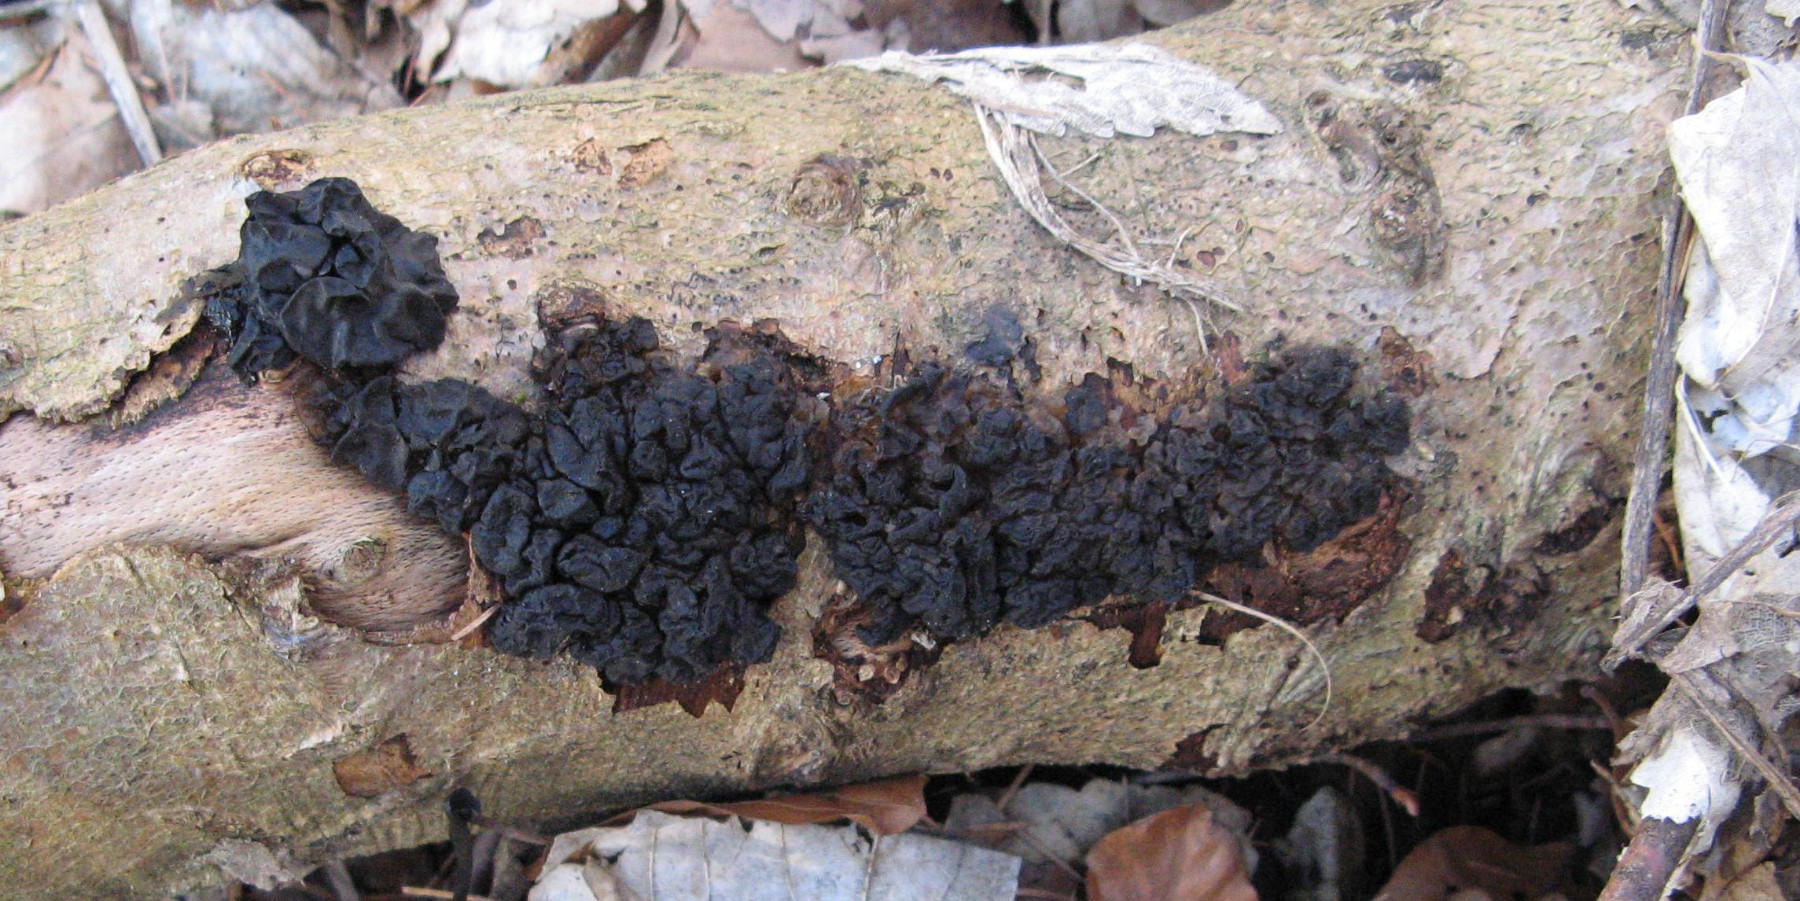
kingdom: Fungi
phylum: Basidiomycota
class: Agaricomycetes
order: Auriculariales
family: Auriculariaceae
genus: Exidia
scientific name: Exidia nigricans
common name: almindelig bævretop
